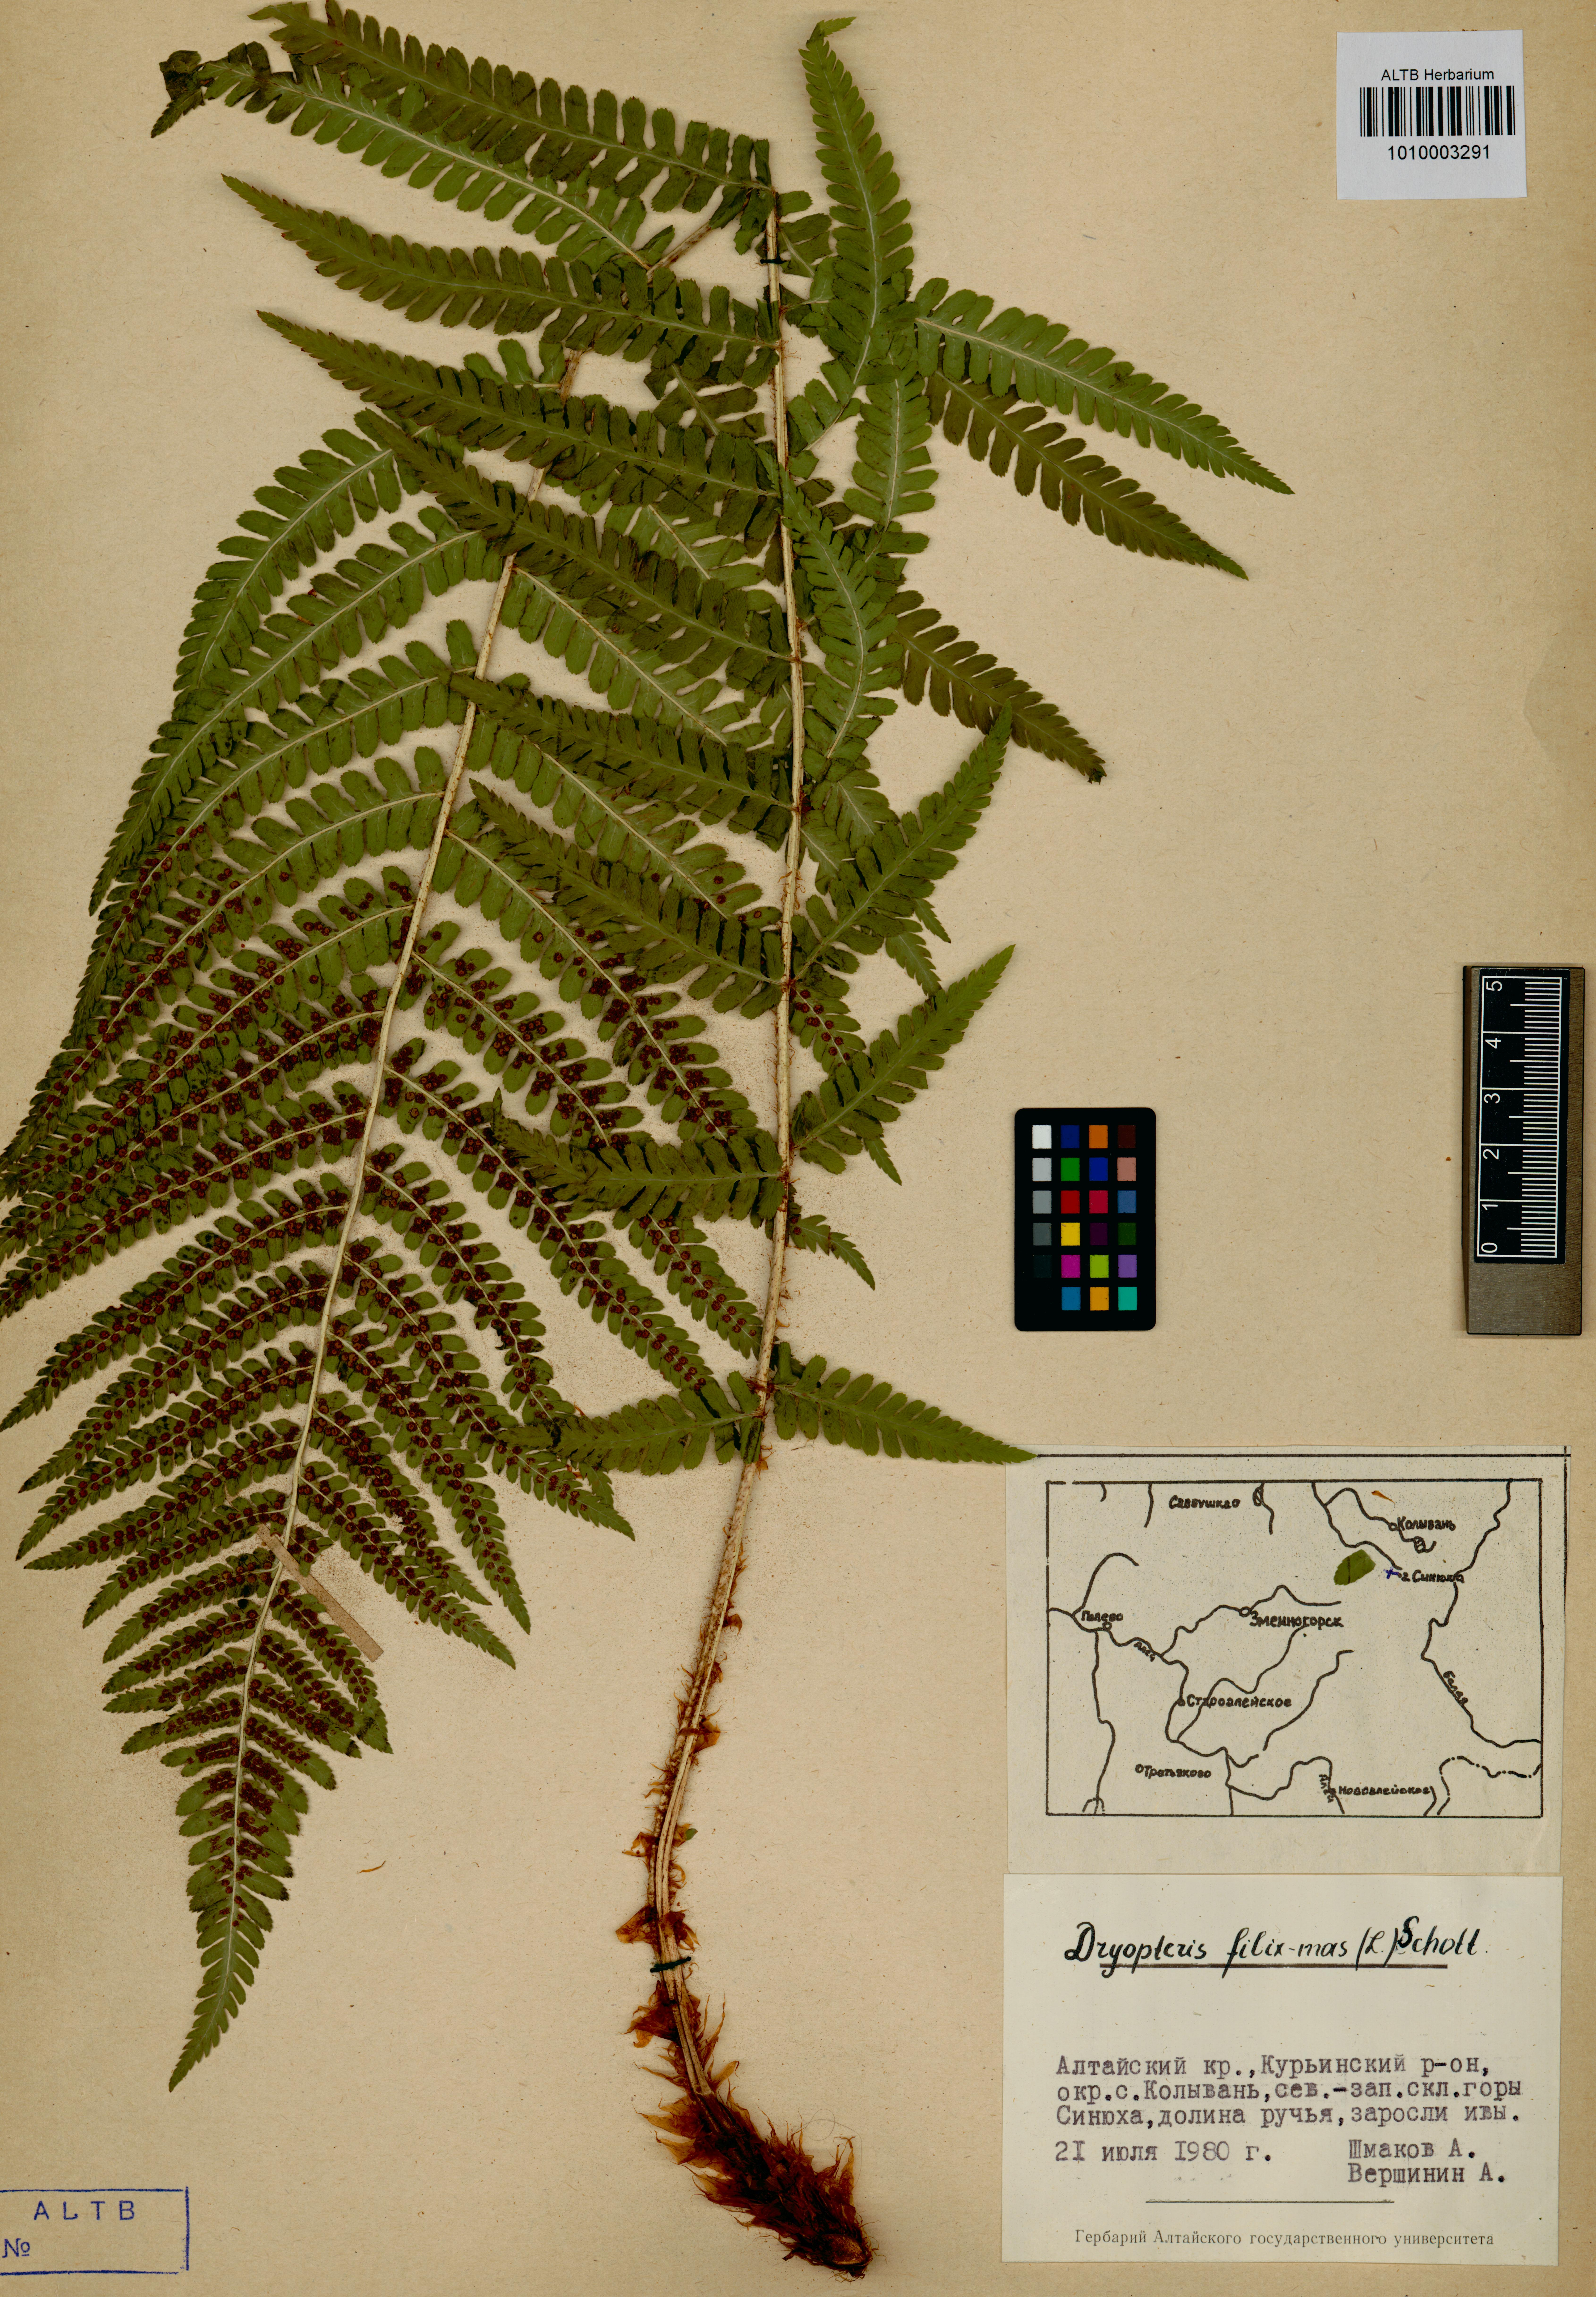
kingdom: Plantae
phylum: Tracheophyta
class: Polypodiopsida
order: Polypodiales
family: Dryopteridaceae
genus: Dryopteris
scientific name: Dryopteris filix-mas
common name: Male fern
